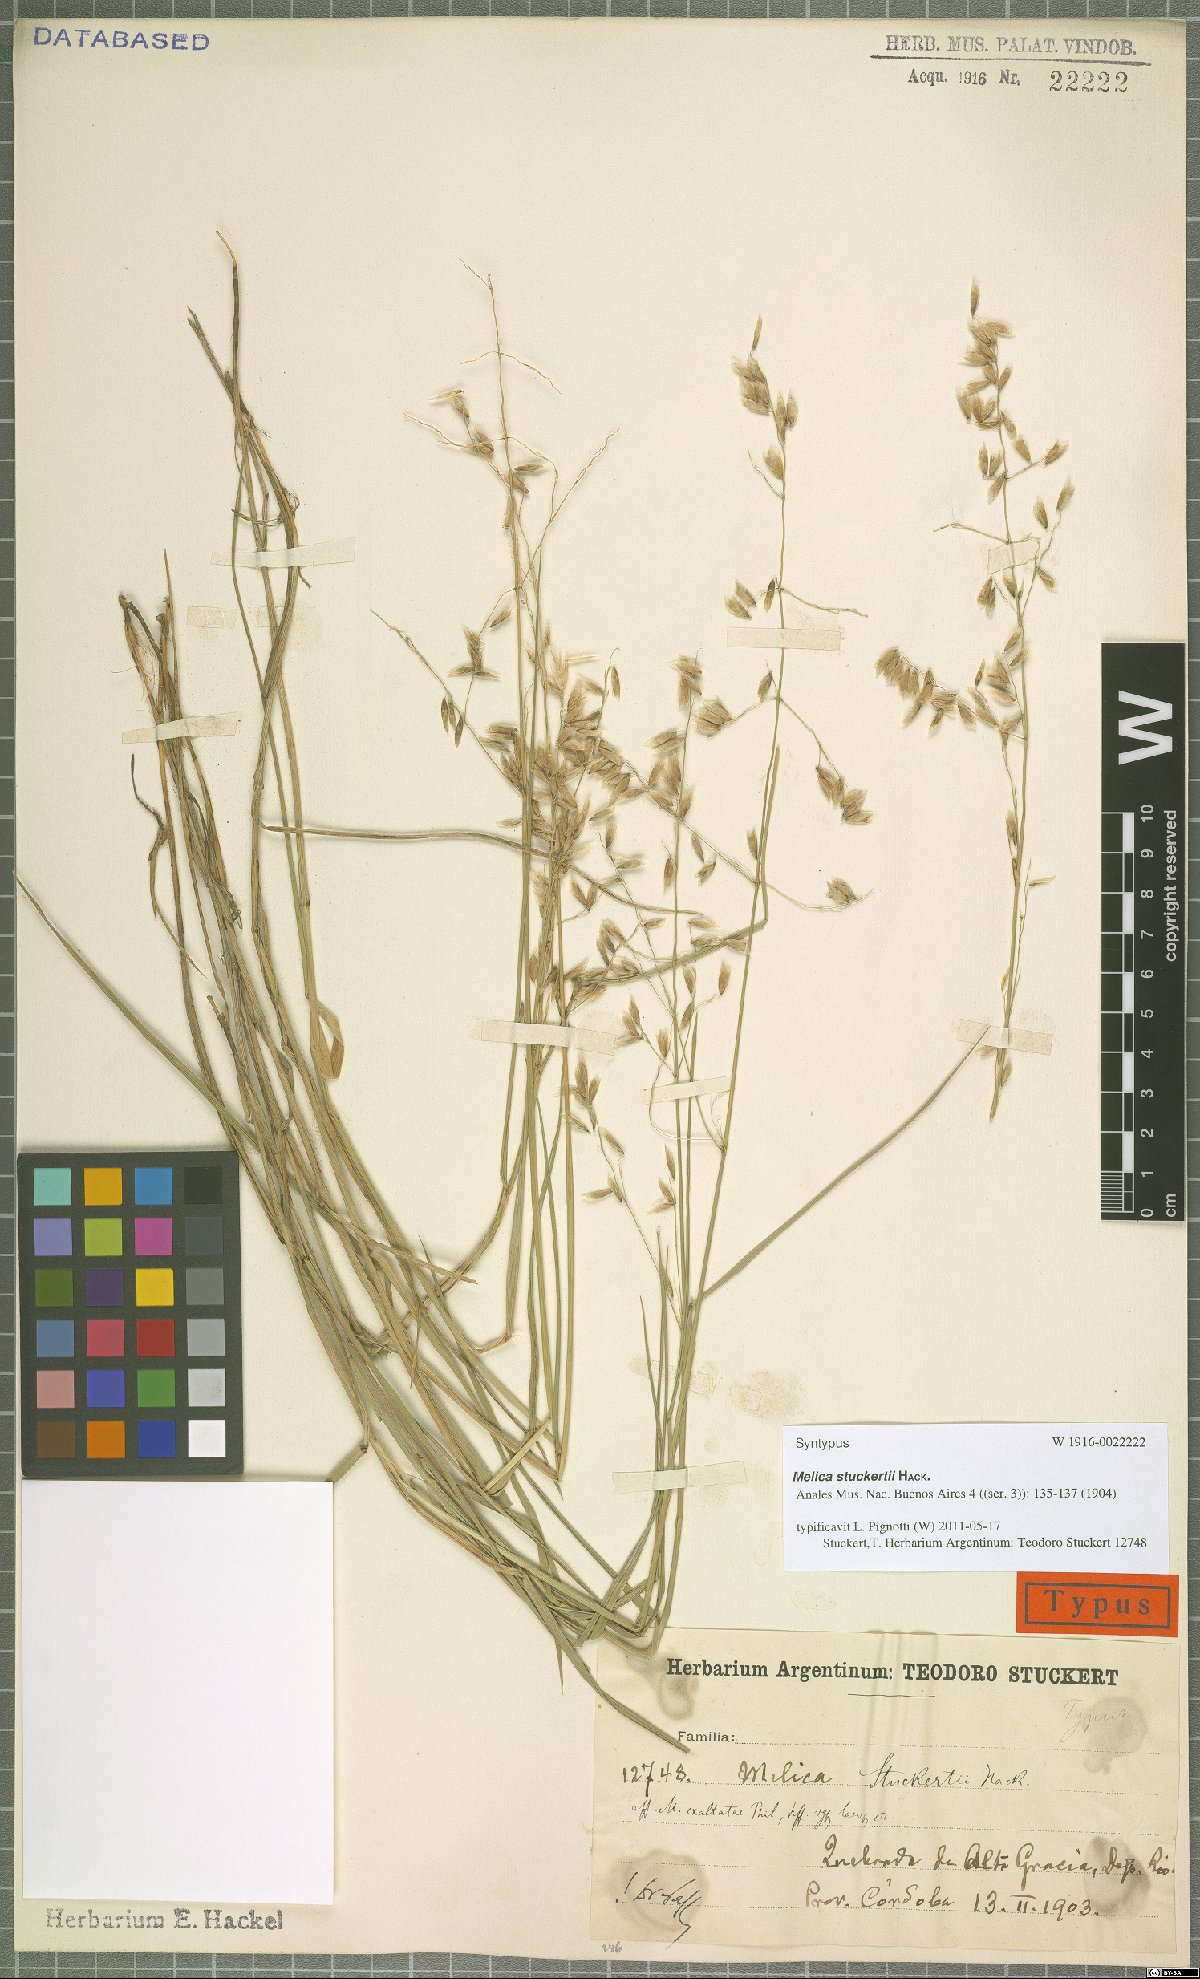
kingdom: Plantae
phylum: Tracheophyta
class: Liliopsida
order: Poales
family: Poaceae
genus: Melica
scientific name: Melica stuckertii
